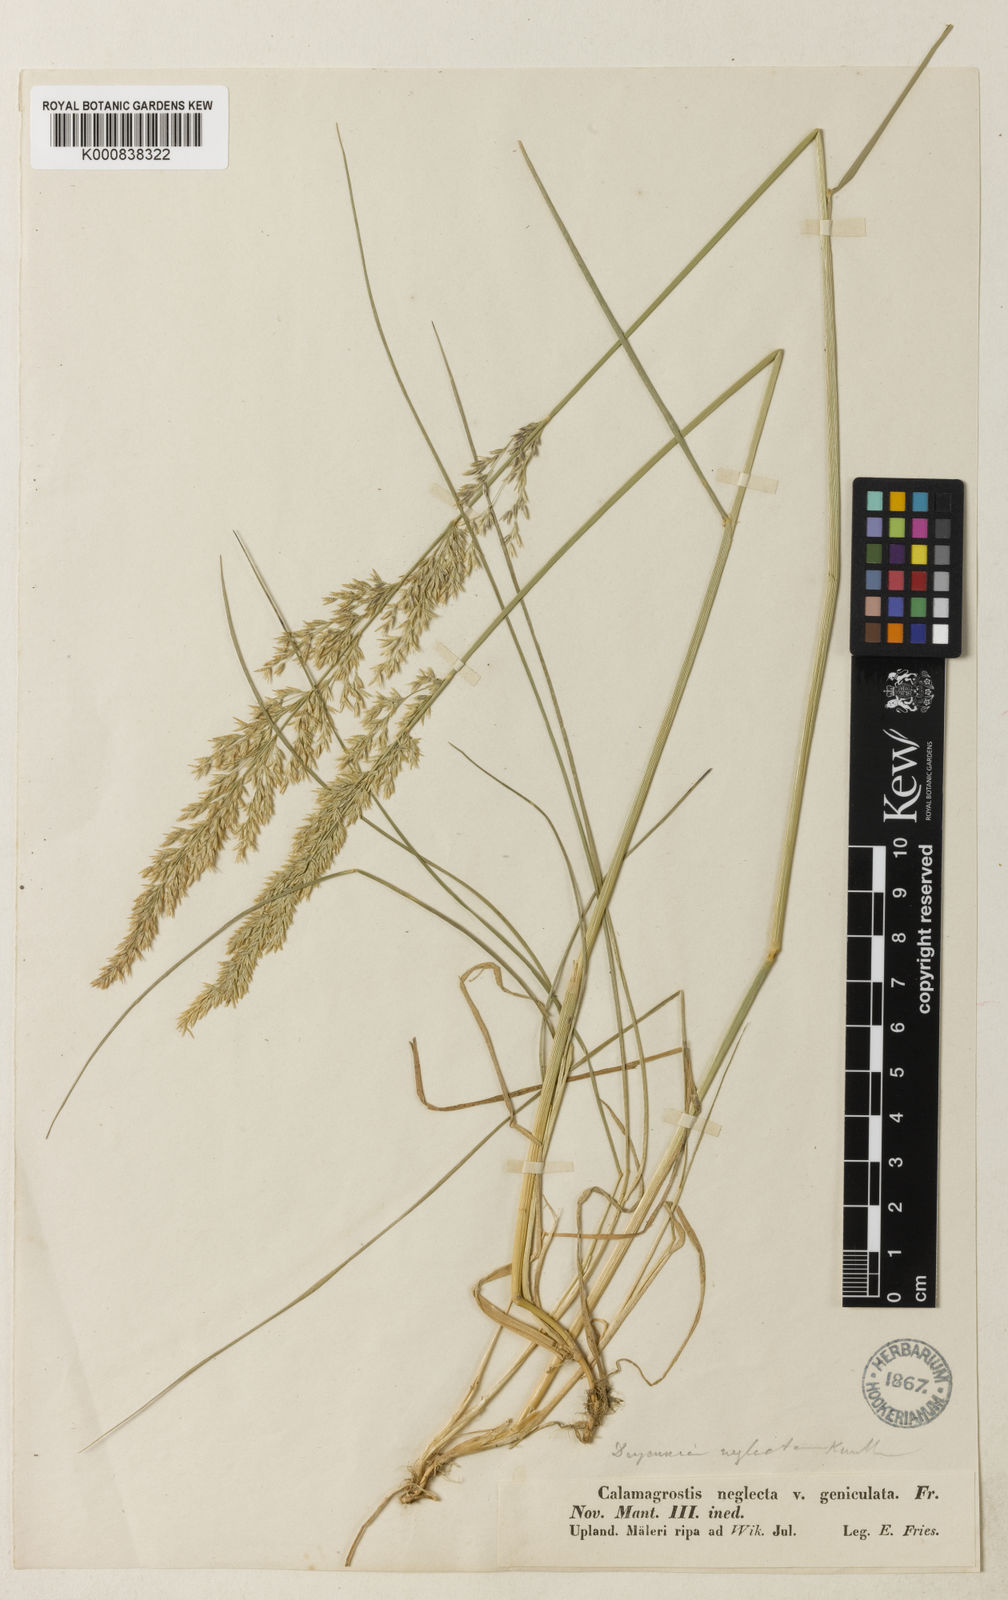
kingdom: Plantae
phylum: Tracheophyta
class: Liliopsida
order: Poales
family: Poaceae
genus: Calamagrostis
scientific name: Calamagrostis stricta
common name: Narrow small-reed
